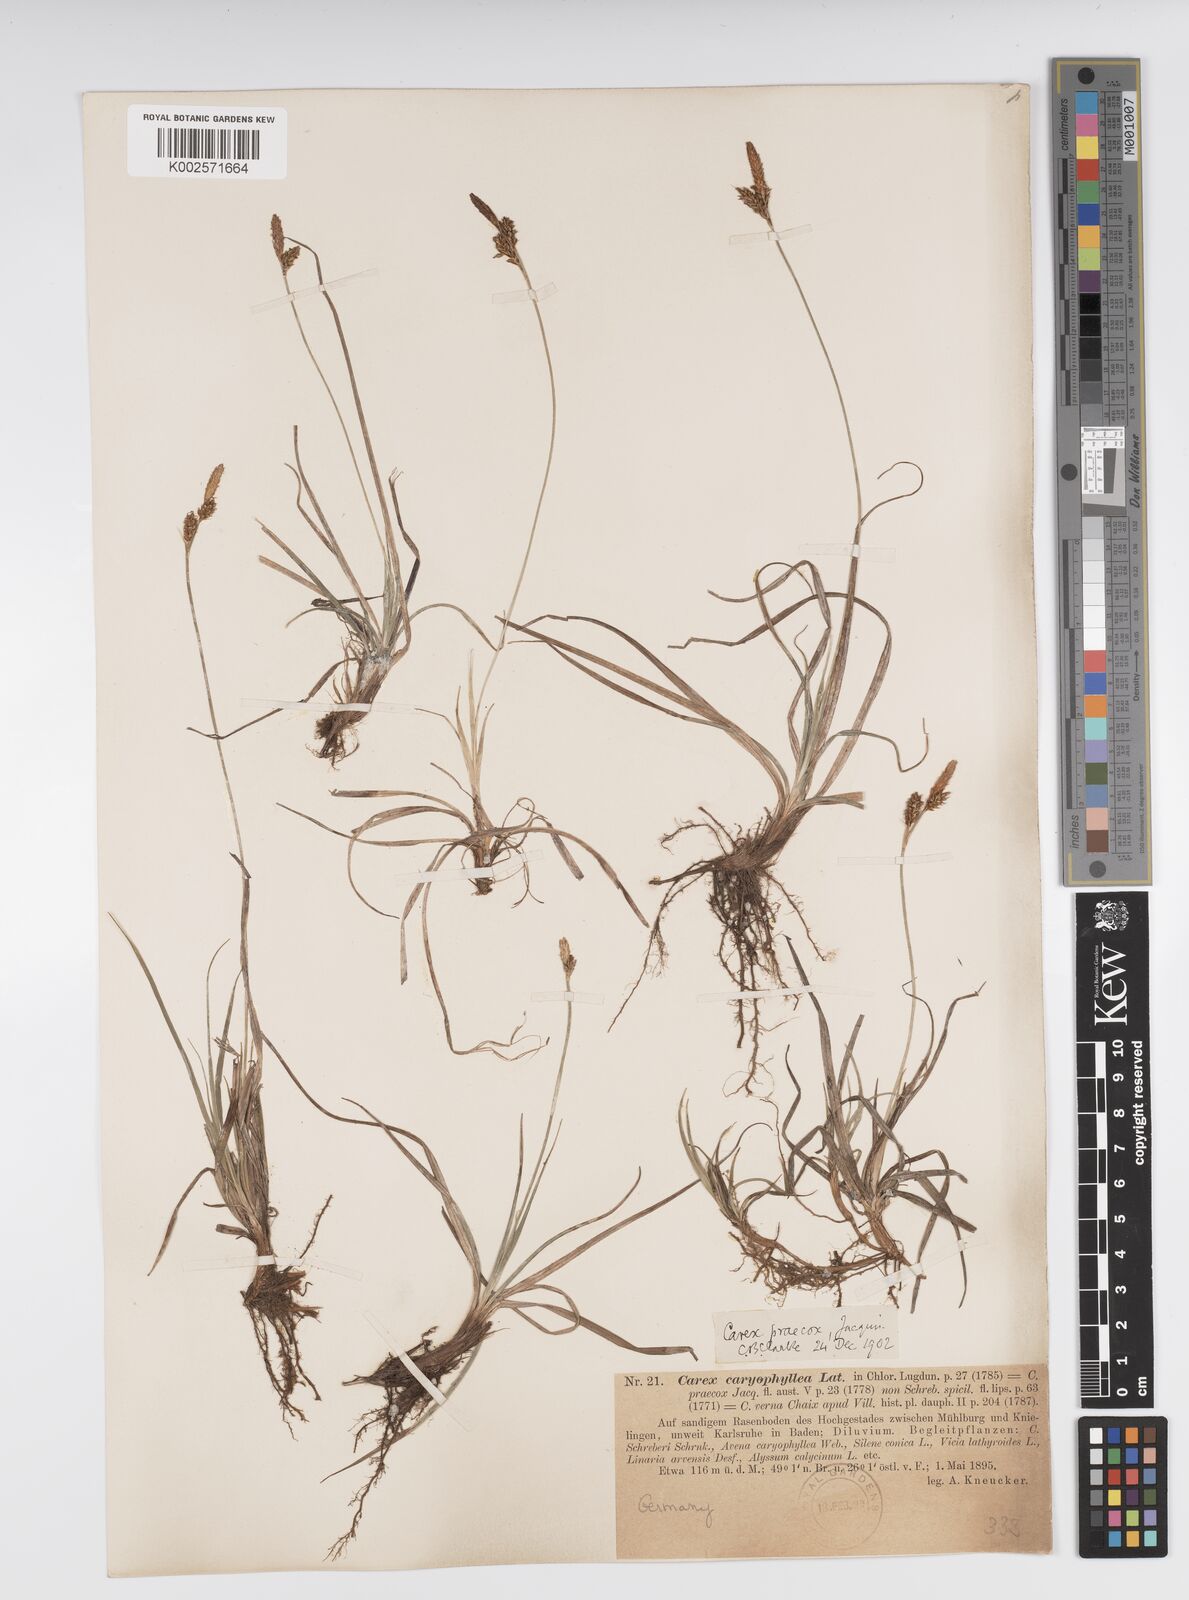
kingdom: Plantae
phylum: Tracheophyta
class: Liliopsida
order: Poales
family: Cyperaceae
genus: Carex
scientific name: Carex caryophyllea
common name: Spring sedge
